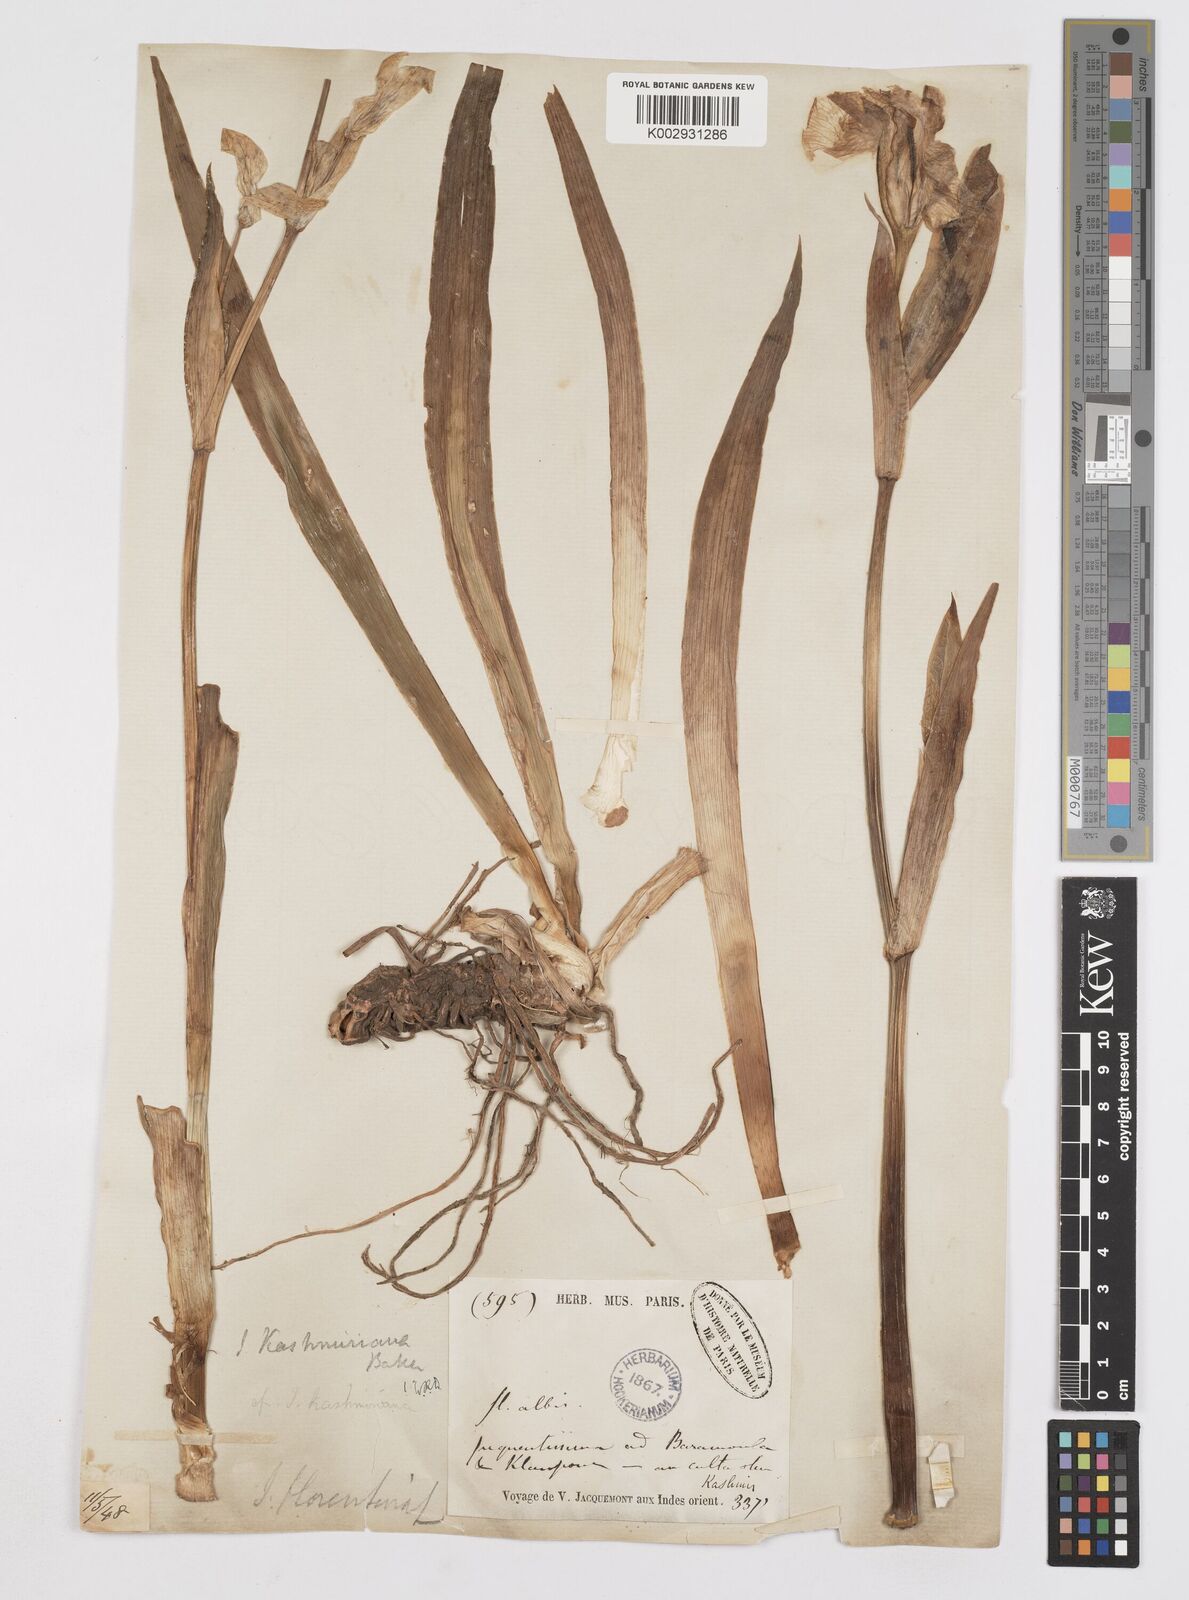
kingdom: Plantae
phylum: Tracheophyta
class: Liliopsida
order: Asparagales
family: Iridaceae
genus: Iris
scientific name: Iris pallida
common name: Sweet iris
